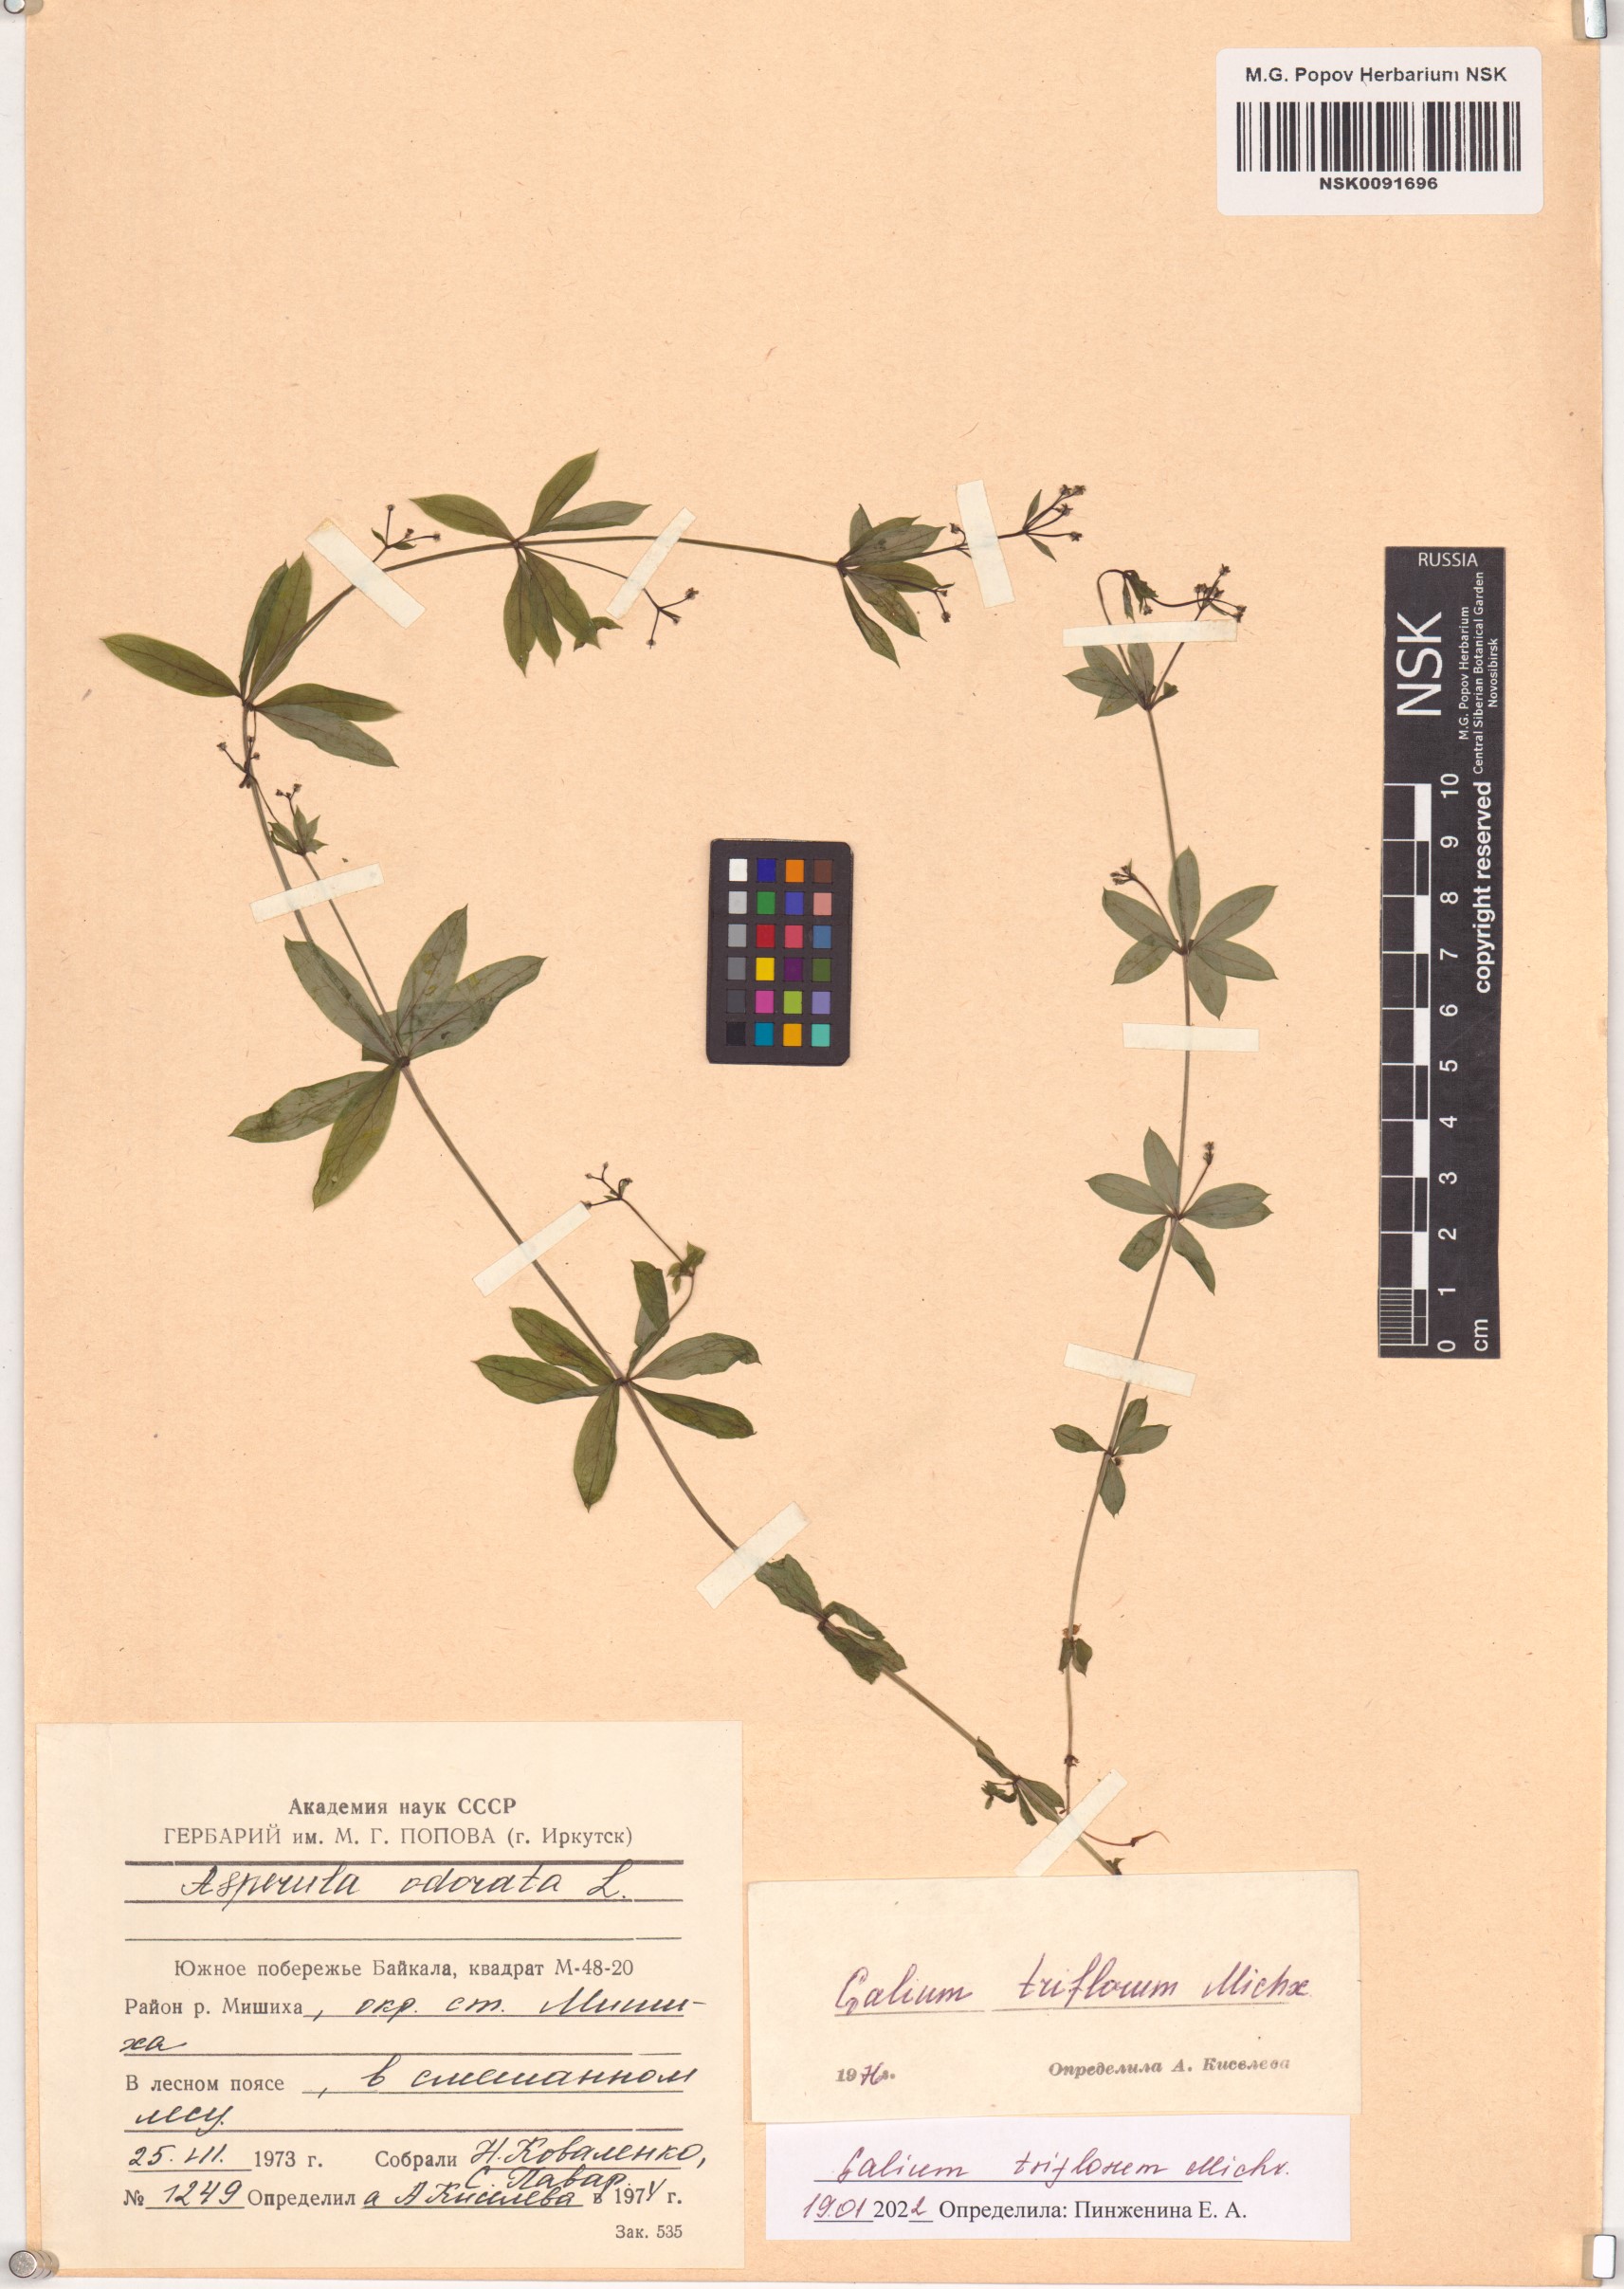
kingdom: Plantae
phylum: Tracheophyta
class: Magnoliopsida
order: Gentianales
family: Rubiaceae
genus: Galium
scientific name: Galium triflorum
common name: Fragrant bedstraw
